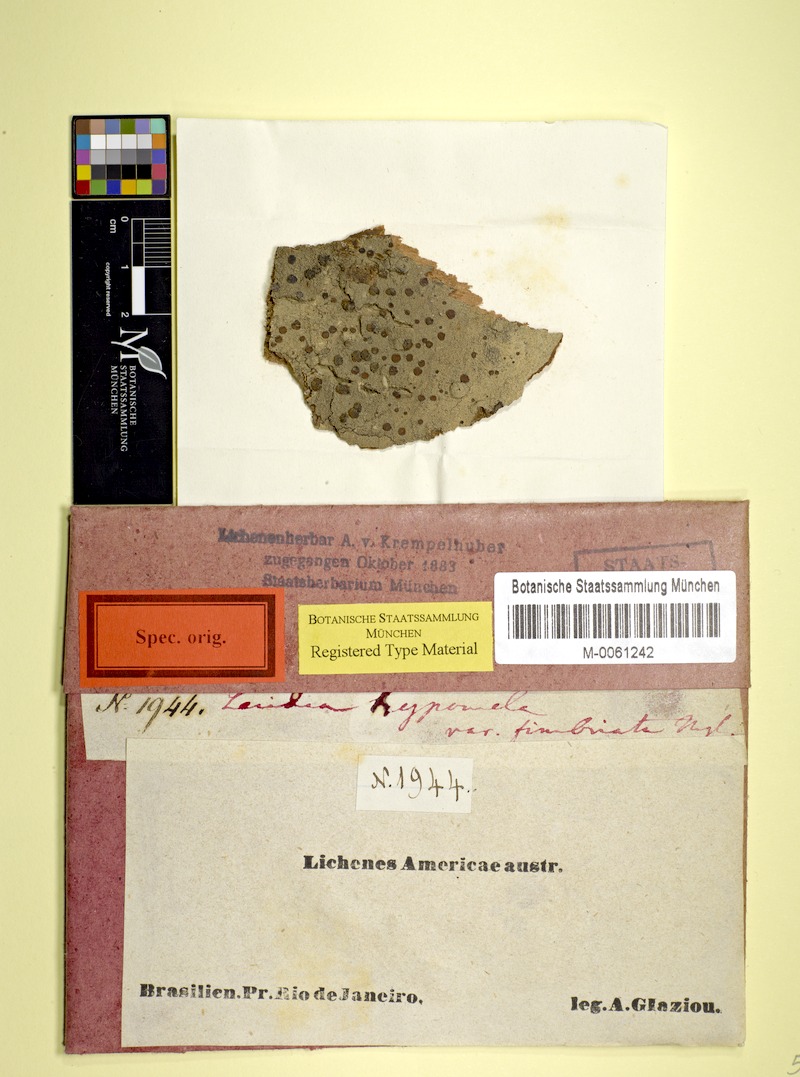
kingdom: Fungi
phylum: Ascomycota
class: Lecanoromycetes
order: Lecideales
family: Lecideaceae
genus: Lecidea
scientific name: Lecidea hypomela
